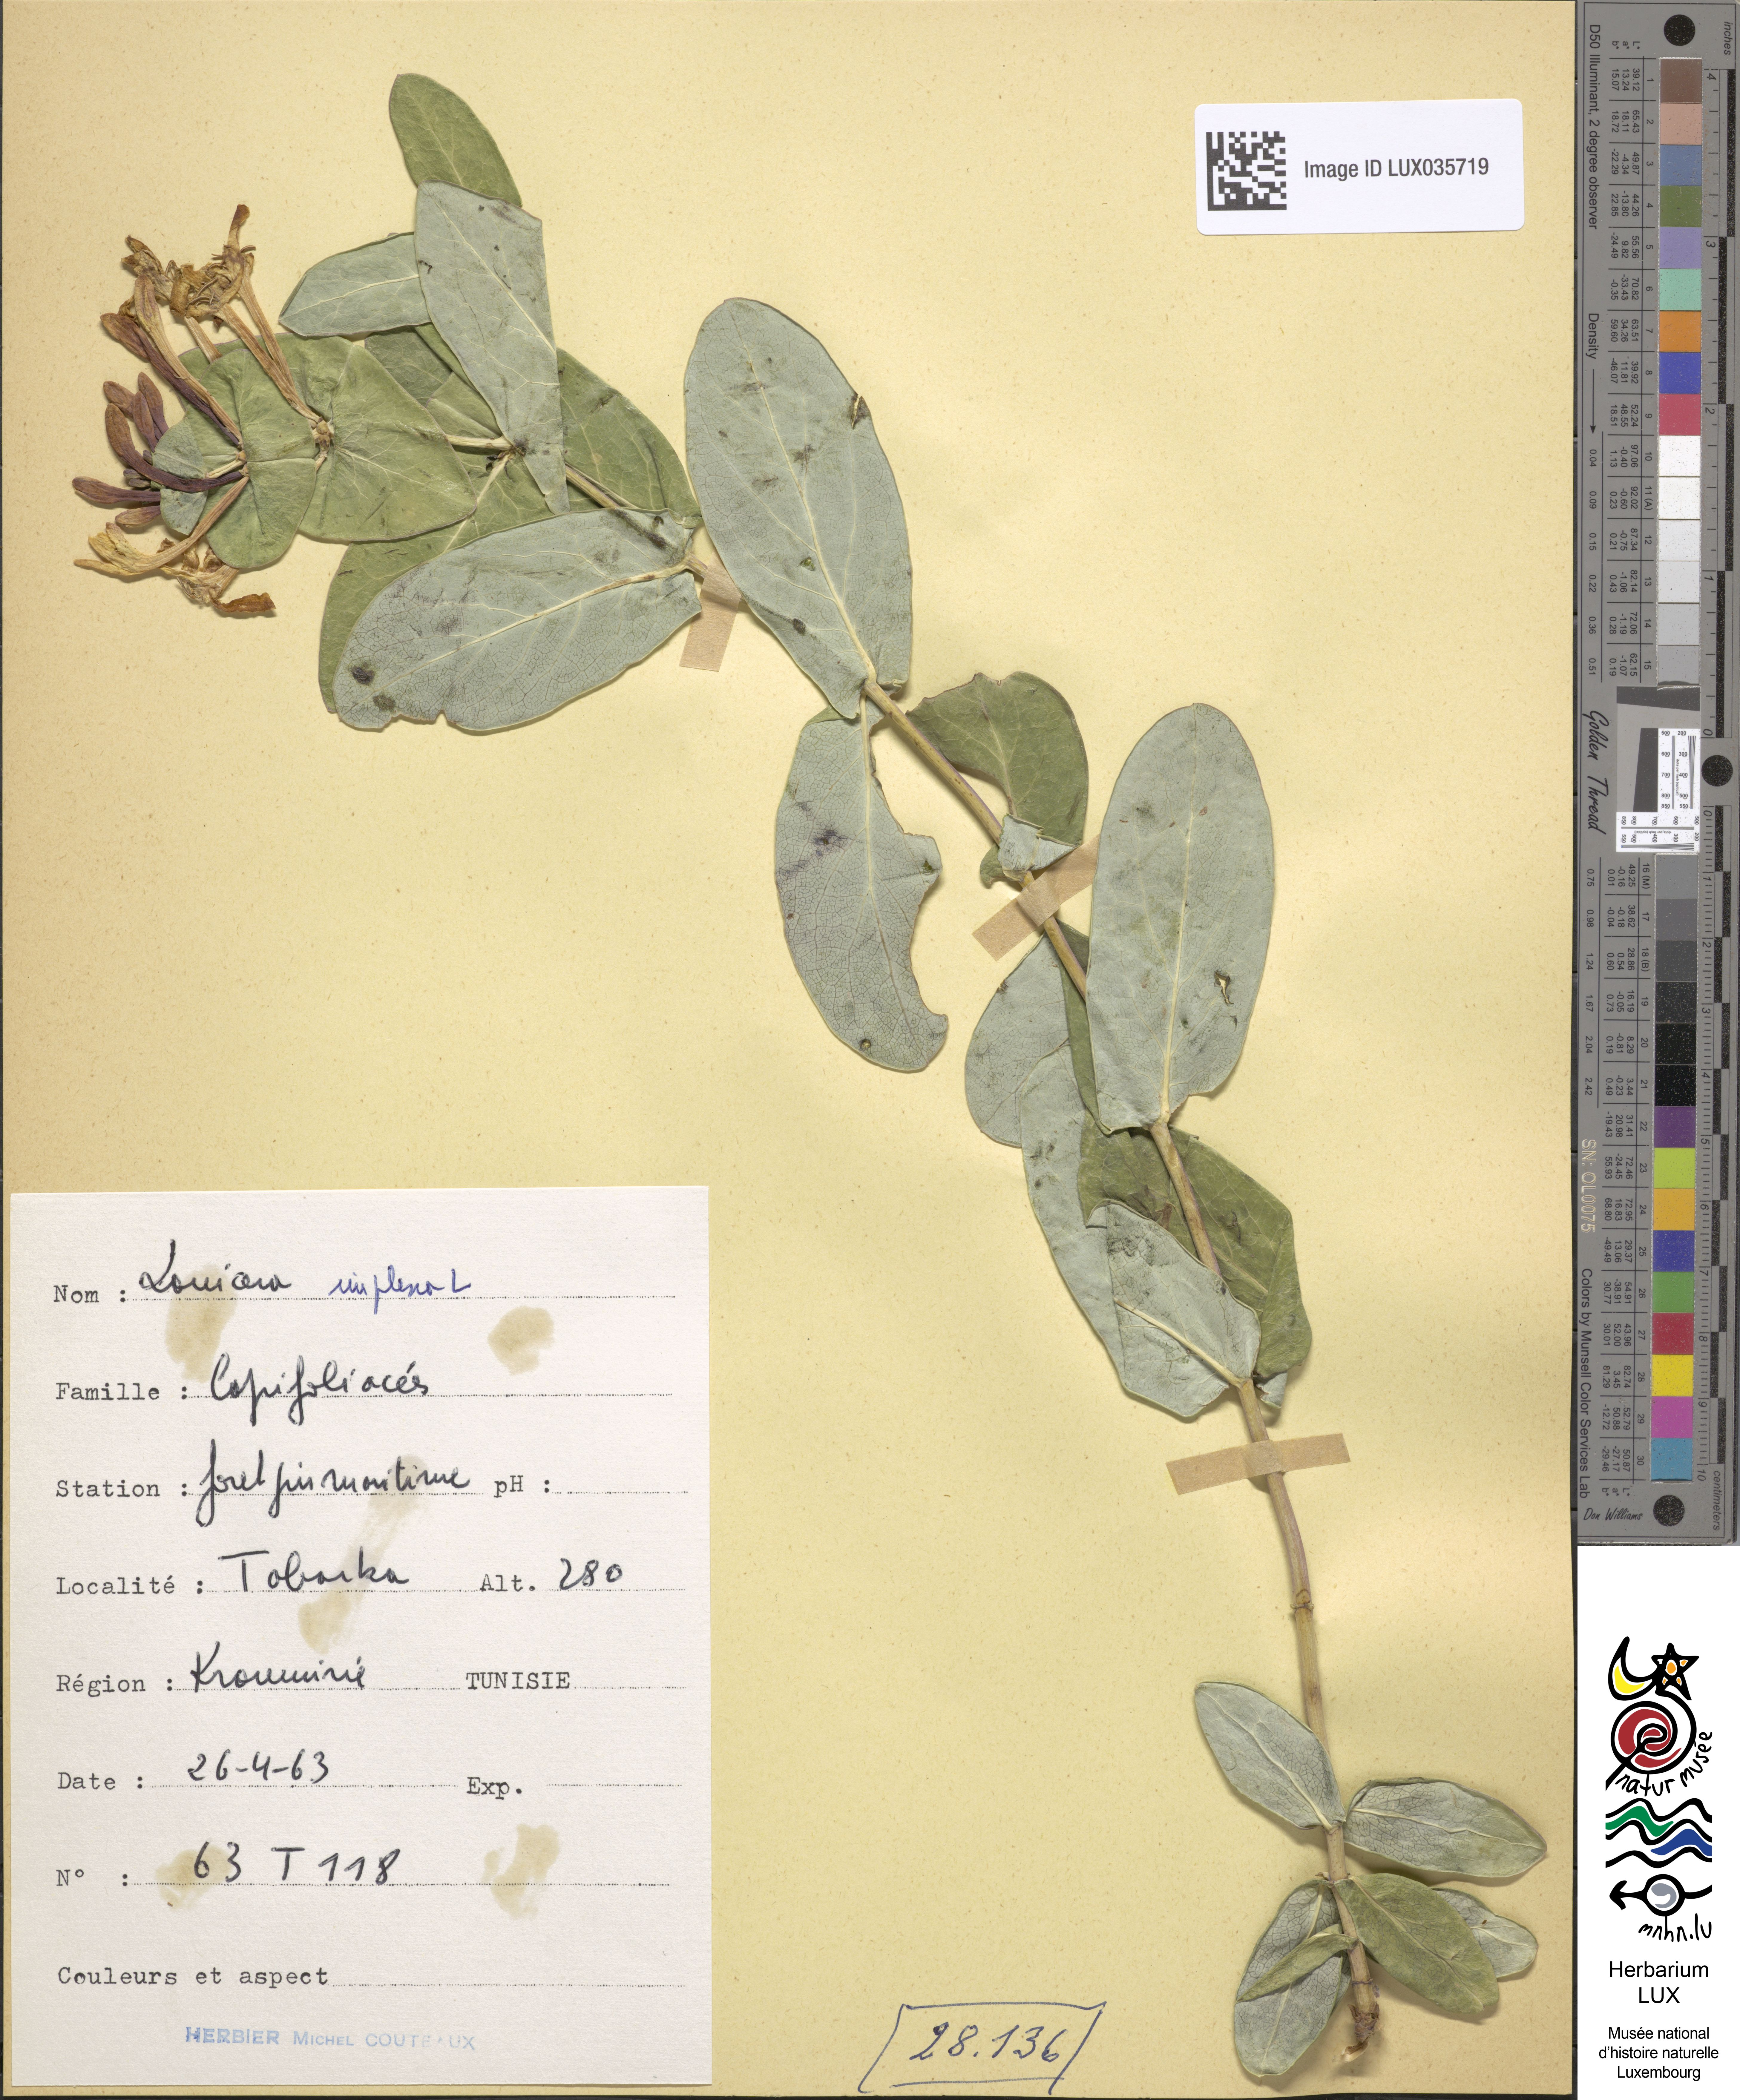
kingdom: Plantae
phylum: Tracheophyta
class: Magnoliopsida
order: Dipsacales
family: Caprifoliaceae
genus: Lonicera
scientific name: Lonicera implexa
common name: Minorca honeysuckle
